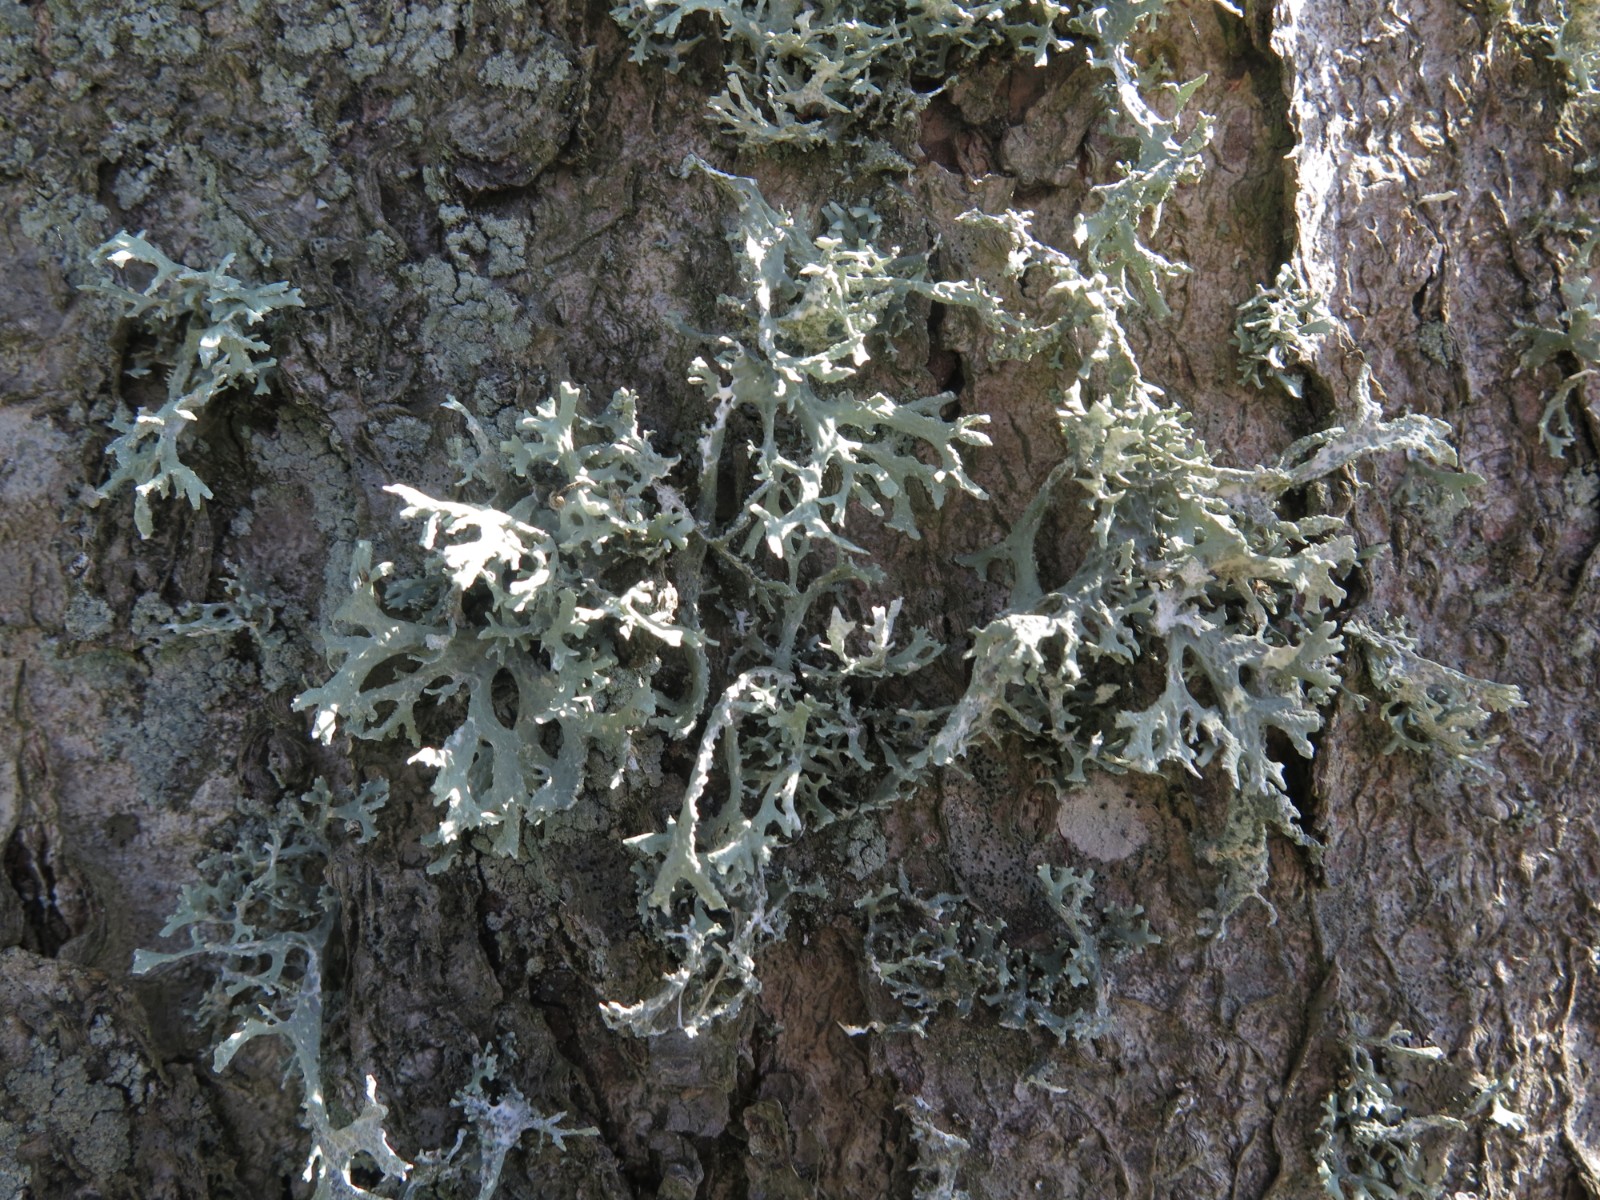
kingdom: Fungi
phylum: Ascomycota
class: Lecanoromycetes
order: Lecanorales
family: Parmeliaceae
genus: Evernia
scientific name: Evernia prunastri
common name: almindelig slåenlav
